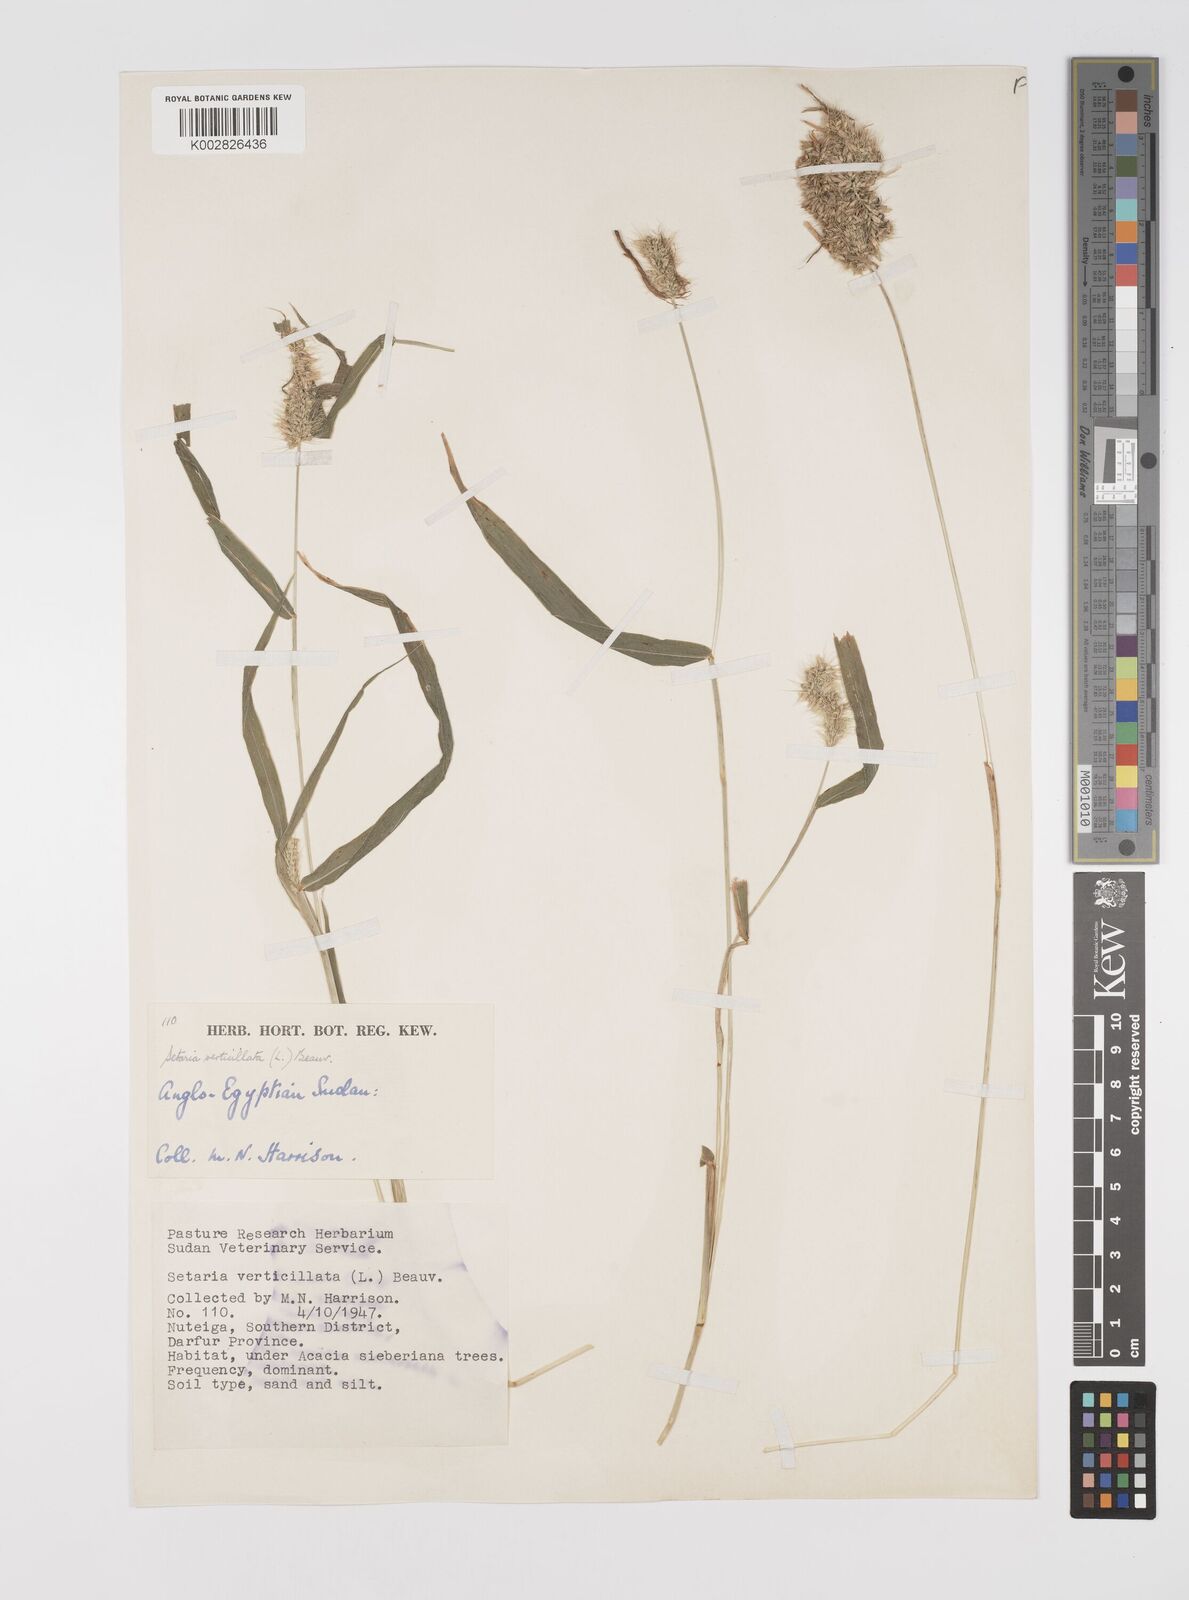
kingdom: Plantae
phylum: Tracheophyta
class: Liliopsida
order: Poales
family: Poaceae
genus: Setaria
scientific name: Setaria verticillata
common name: Hooked bristlegrass
